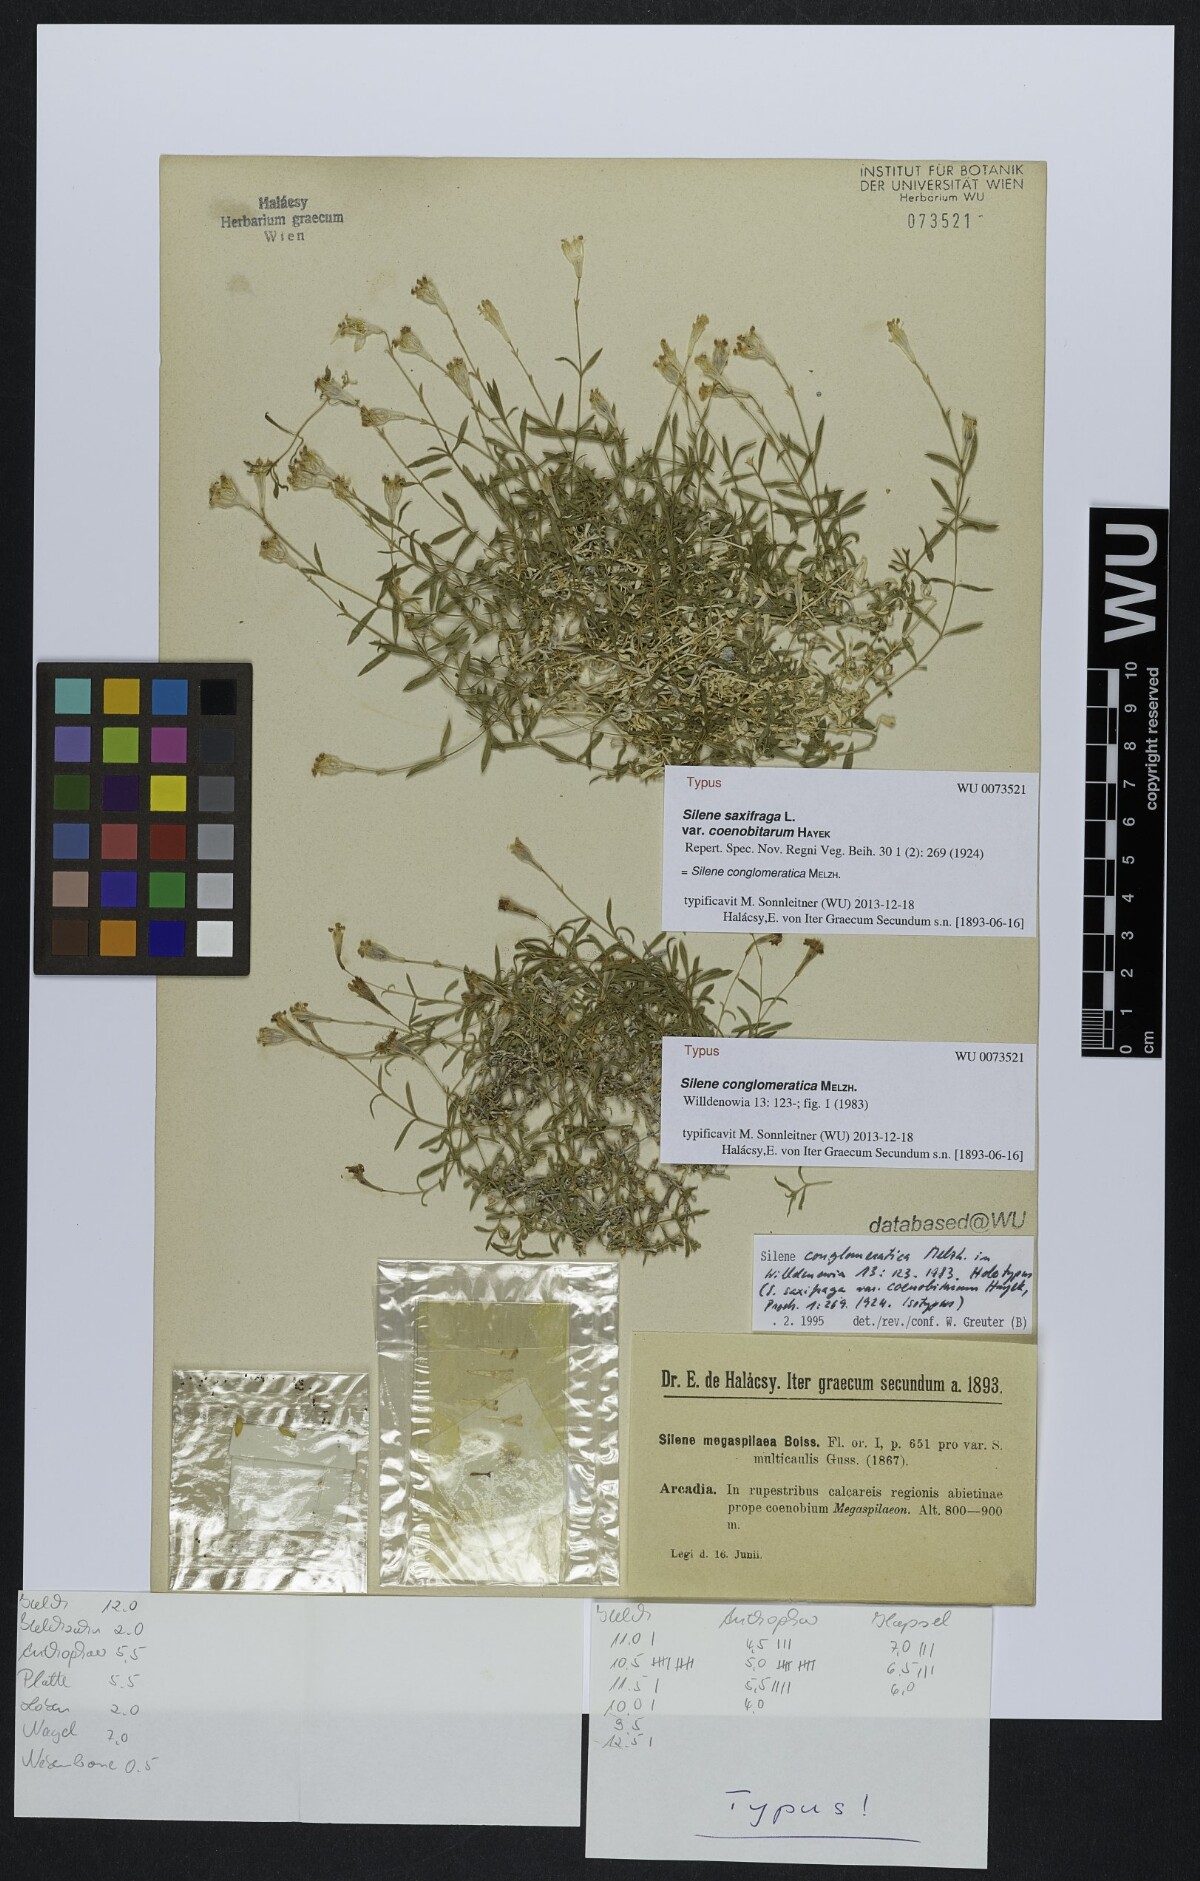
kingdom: Plantae
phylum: Tracheophyta
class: Magnoliopsida
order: Caryophyllales
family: Caryophyllaceae
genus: Silene
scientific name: Silene conglomeratica
